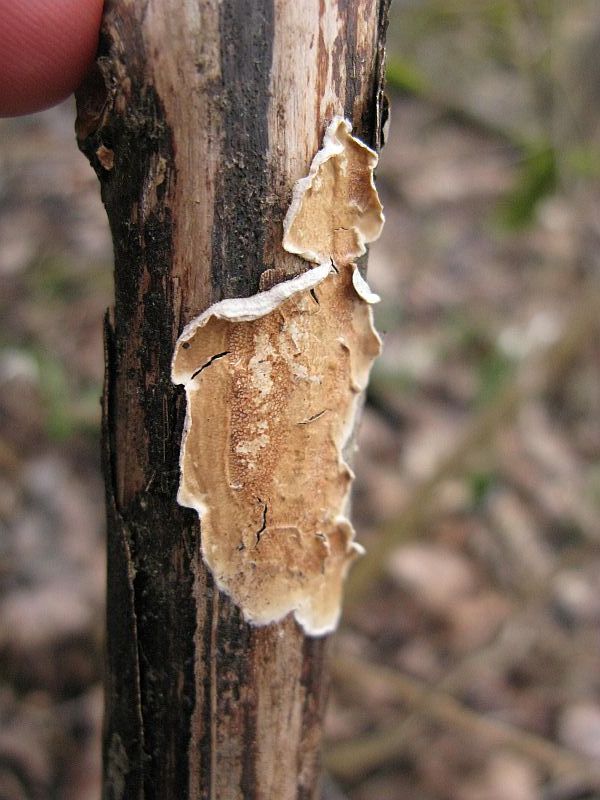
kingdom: Fungi
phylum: Basidiomycota
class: Agaricomycetes
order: Polyporales
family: Irpicaceae
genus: Byssomerulius
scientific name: Byssomerulius corium
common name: læder-åresvamp
